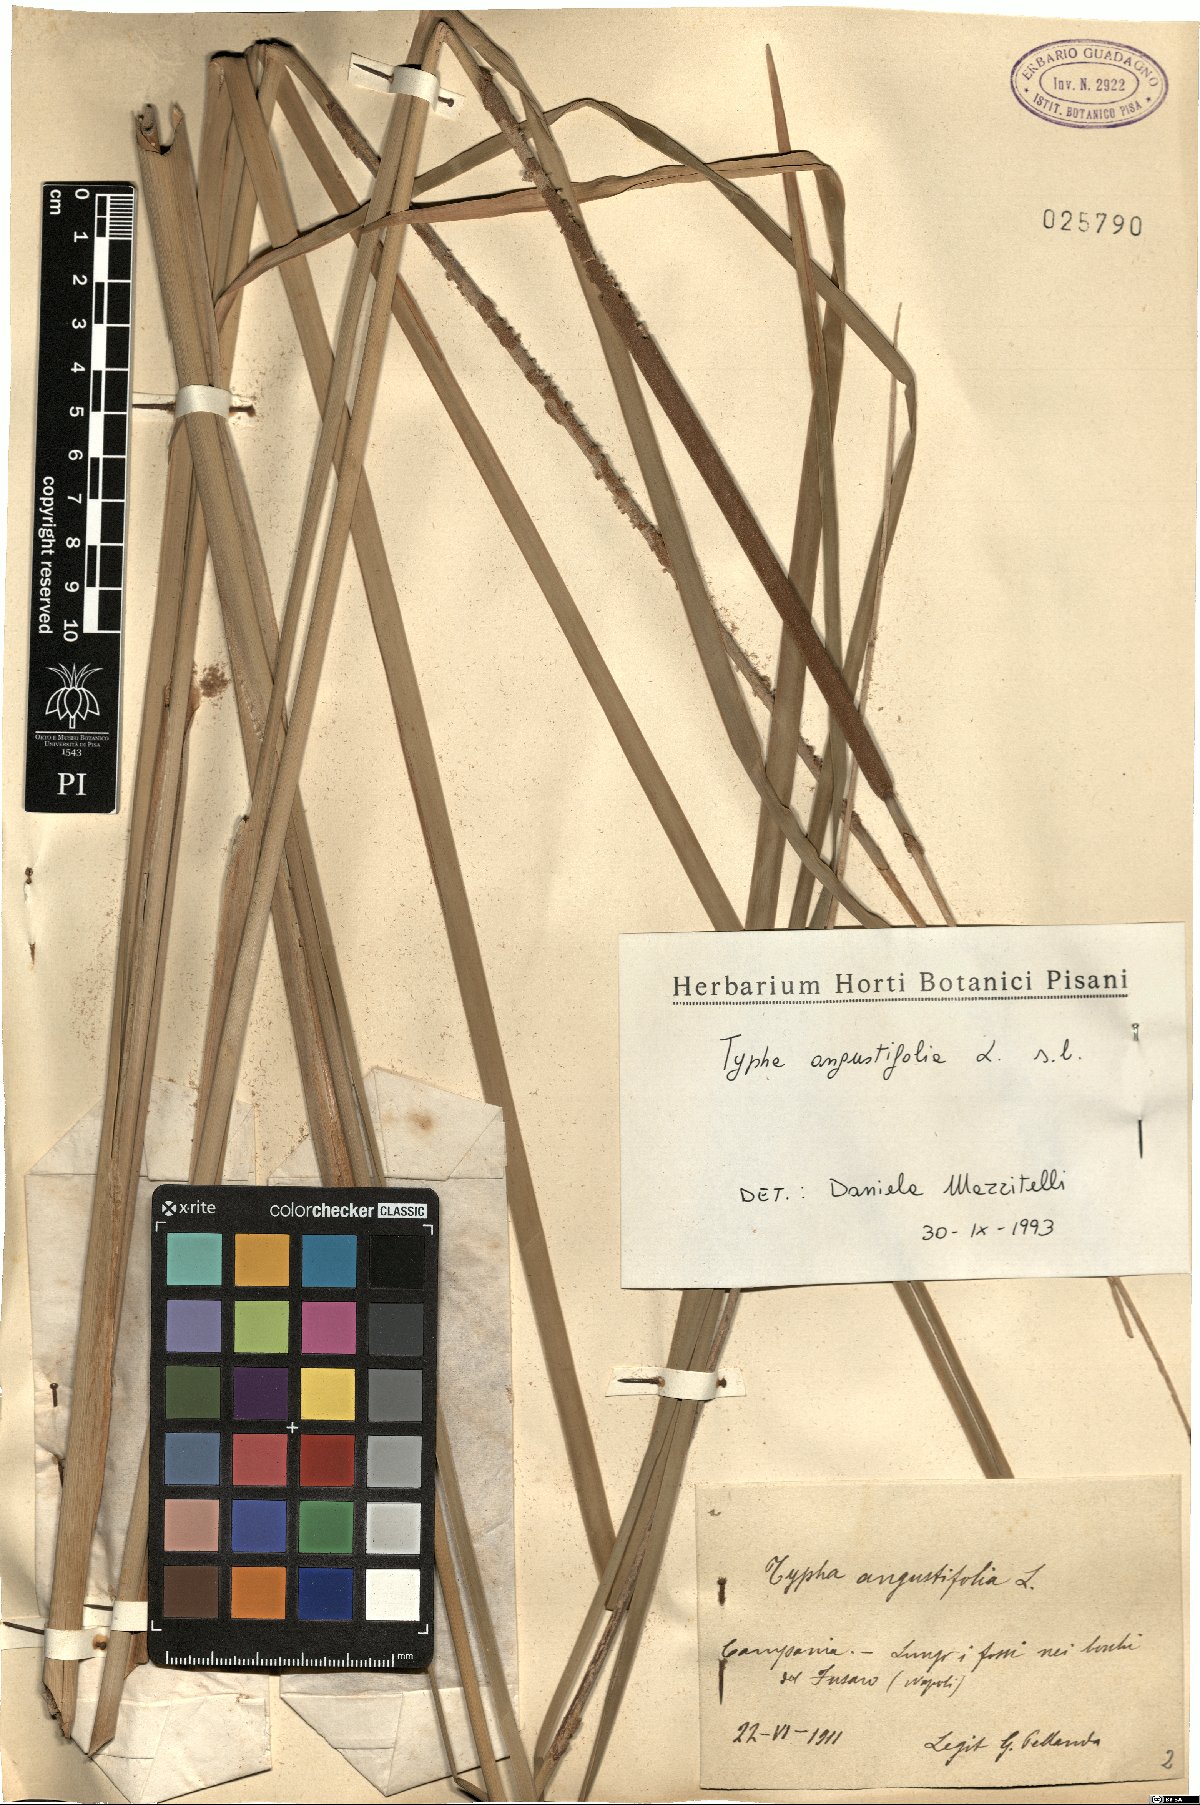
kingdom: Plantae
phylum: Tracheophyta
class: Liliopsida
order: Poales
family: Typhaceae
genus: Typha
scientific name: Typha angustifolia
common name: Lesser bulrush
